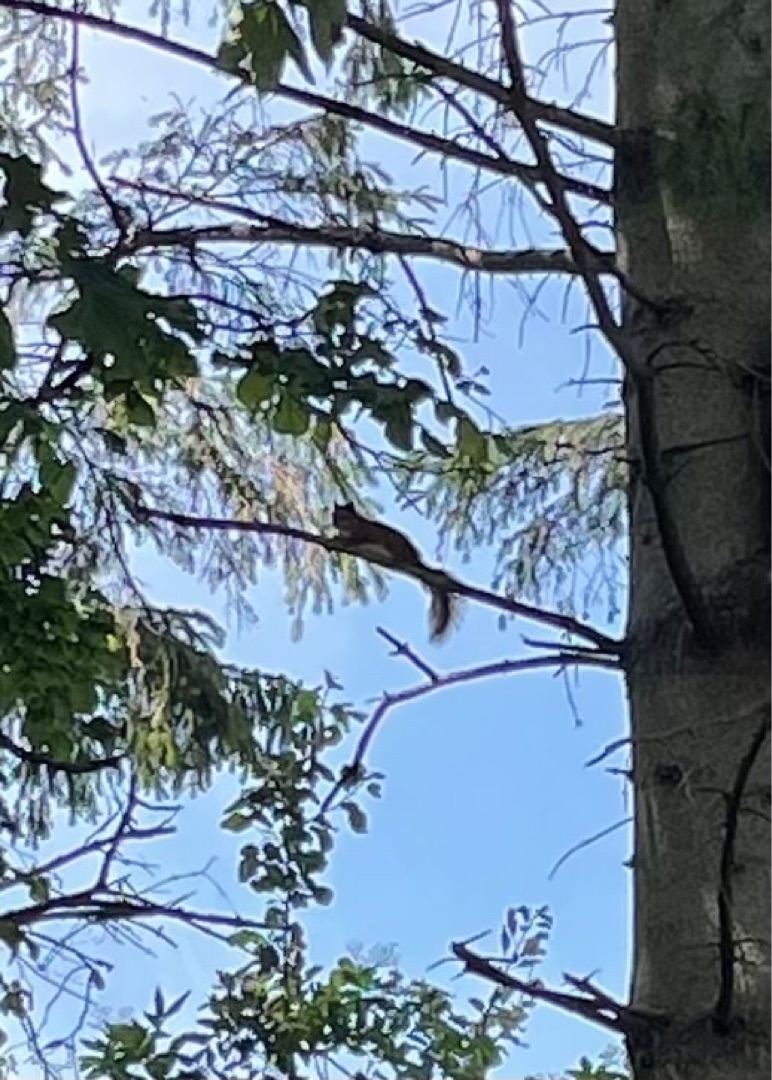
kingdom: Animalia
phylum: Chordata
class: Mammalia
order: Rodentia
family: Sciuridae
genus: Sciurus
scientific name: Sciurus vulgaris
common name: Egern
